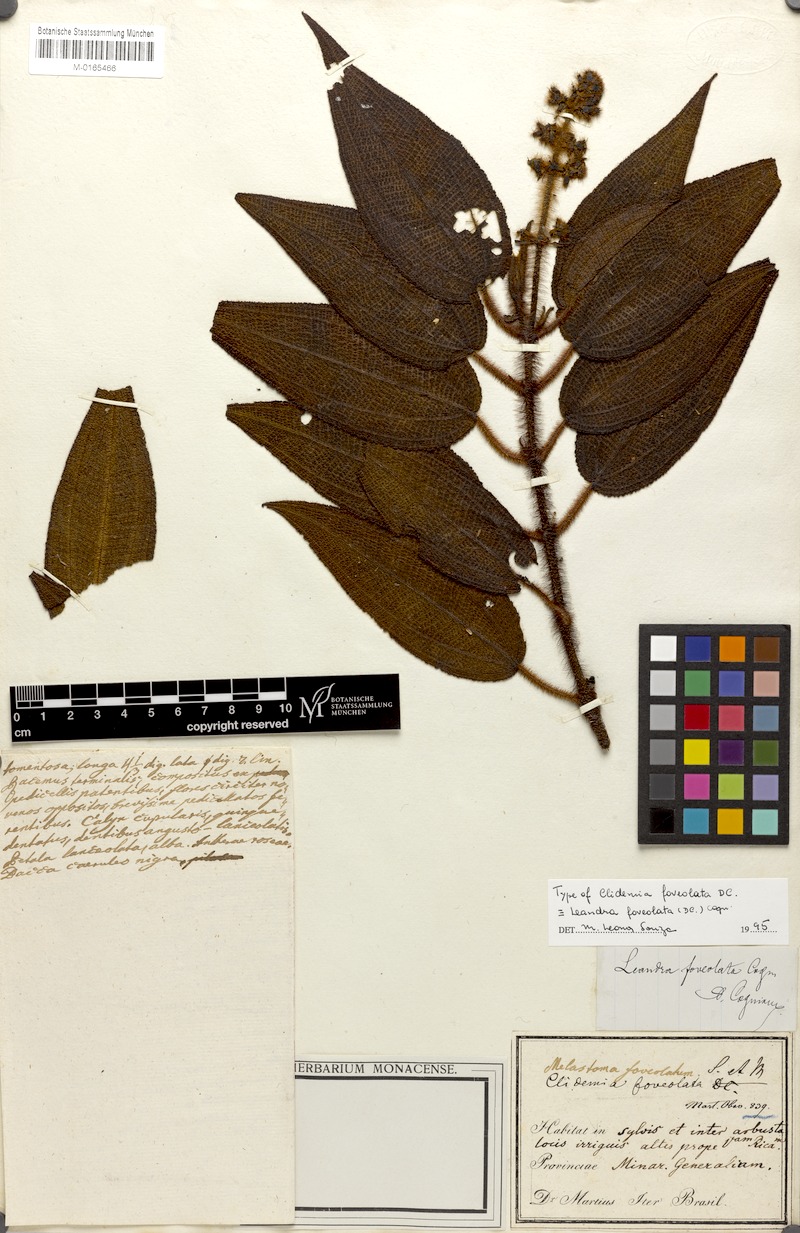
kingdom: Plantae
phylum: Tracheophyta
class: Magnoliopsida
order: Myrtales
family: Melastomataceae
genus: Miconia
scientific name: Miconia leafoveolata
